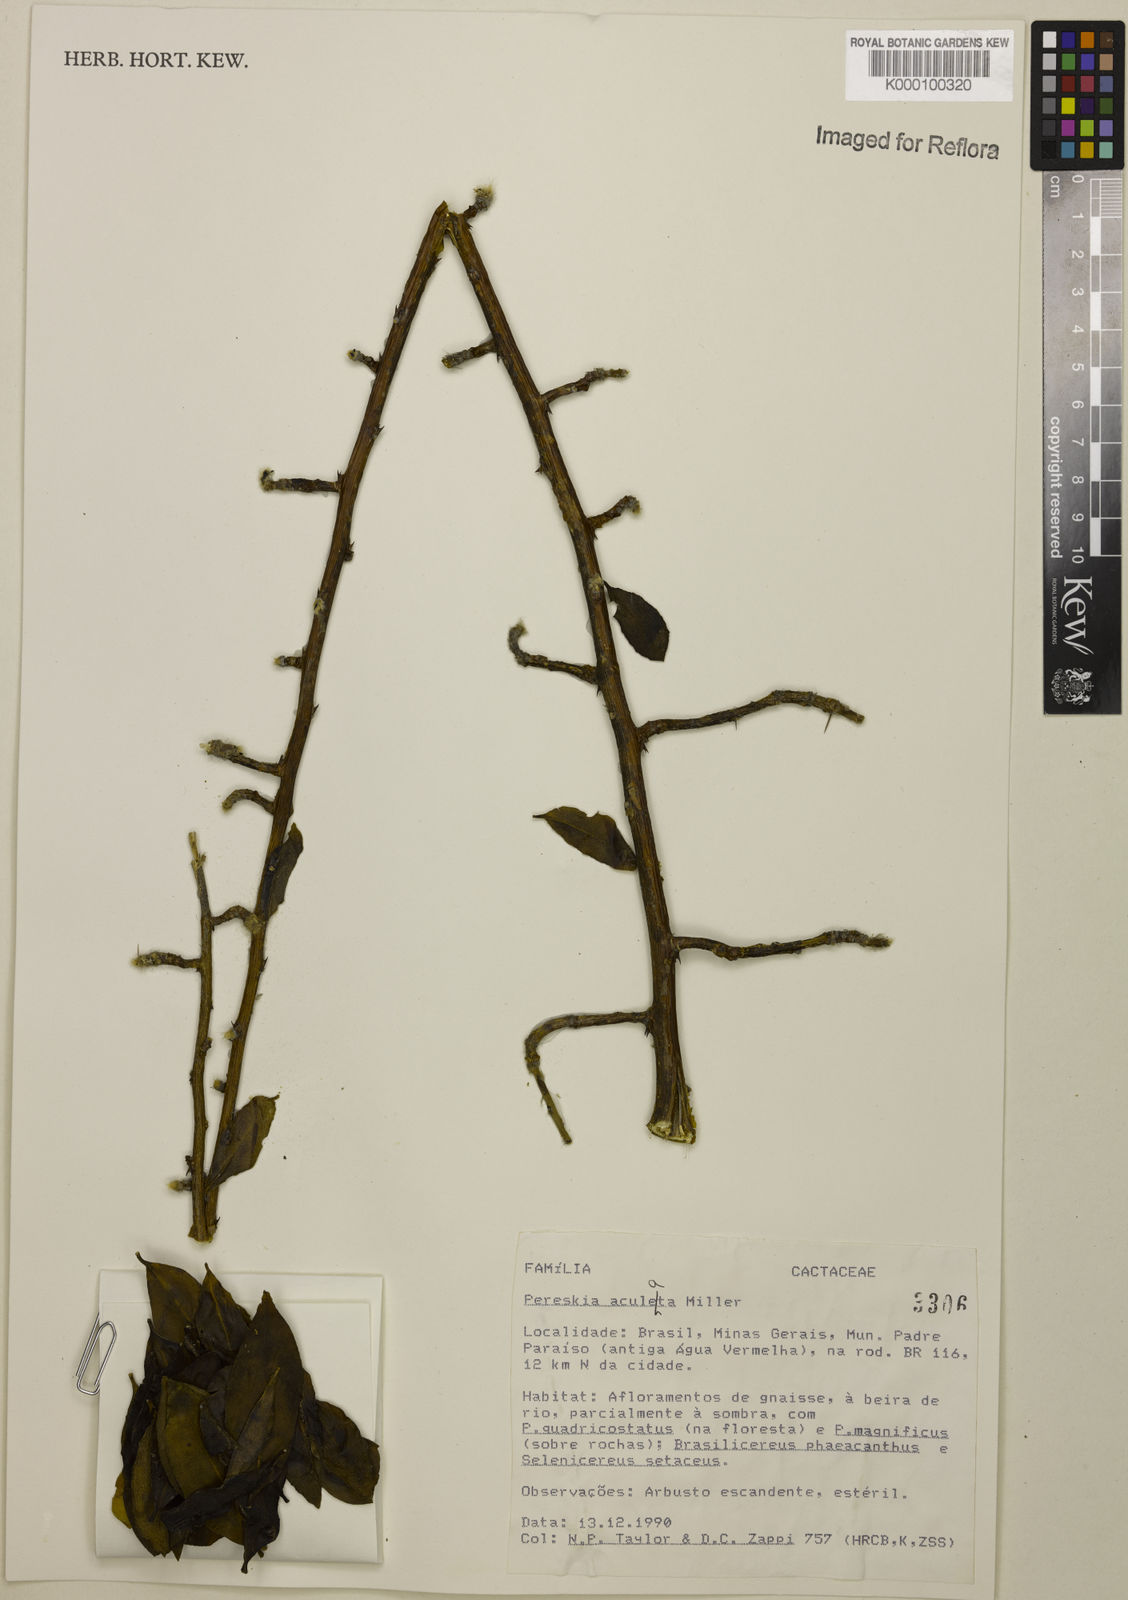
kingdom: Plantae
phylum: Tracheophyta
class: Magnoliopsida
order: Caryophyllales
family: Cactaceae
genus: Pereskia
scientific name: Pereskia aculeata
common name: Barbados gooseberry
